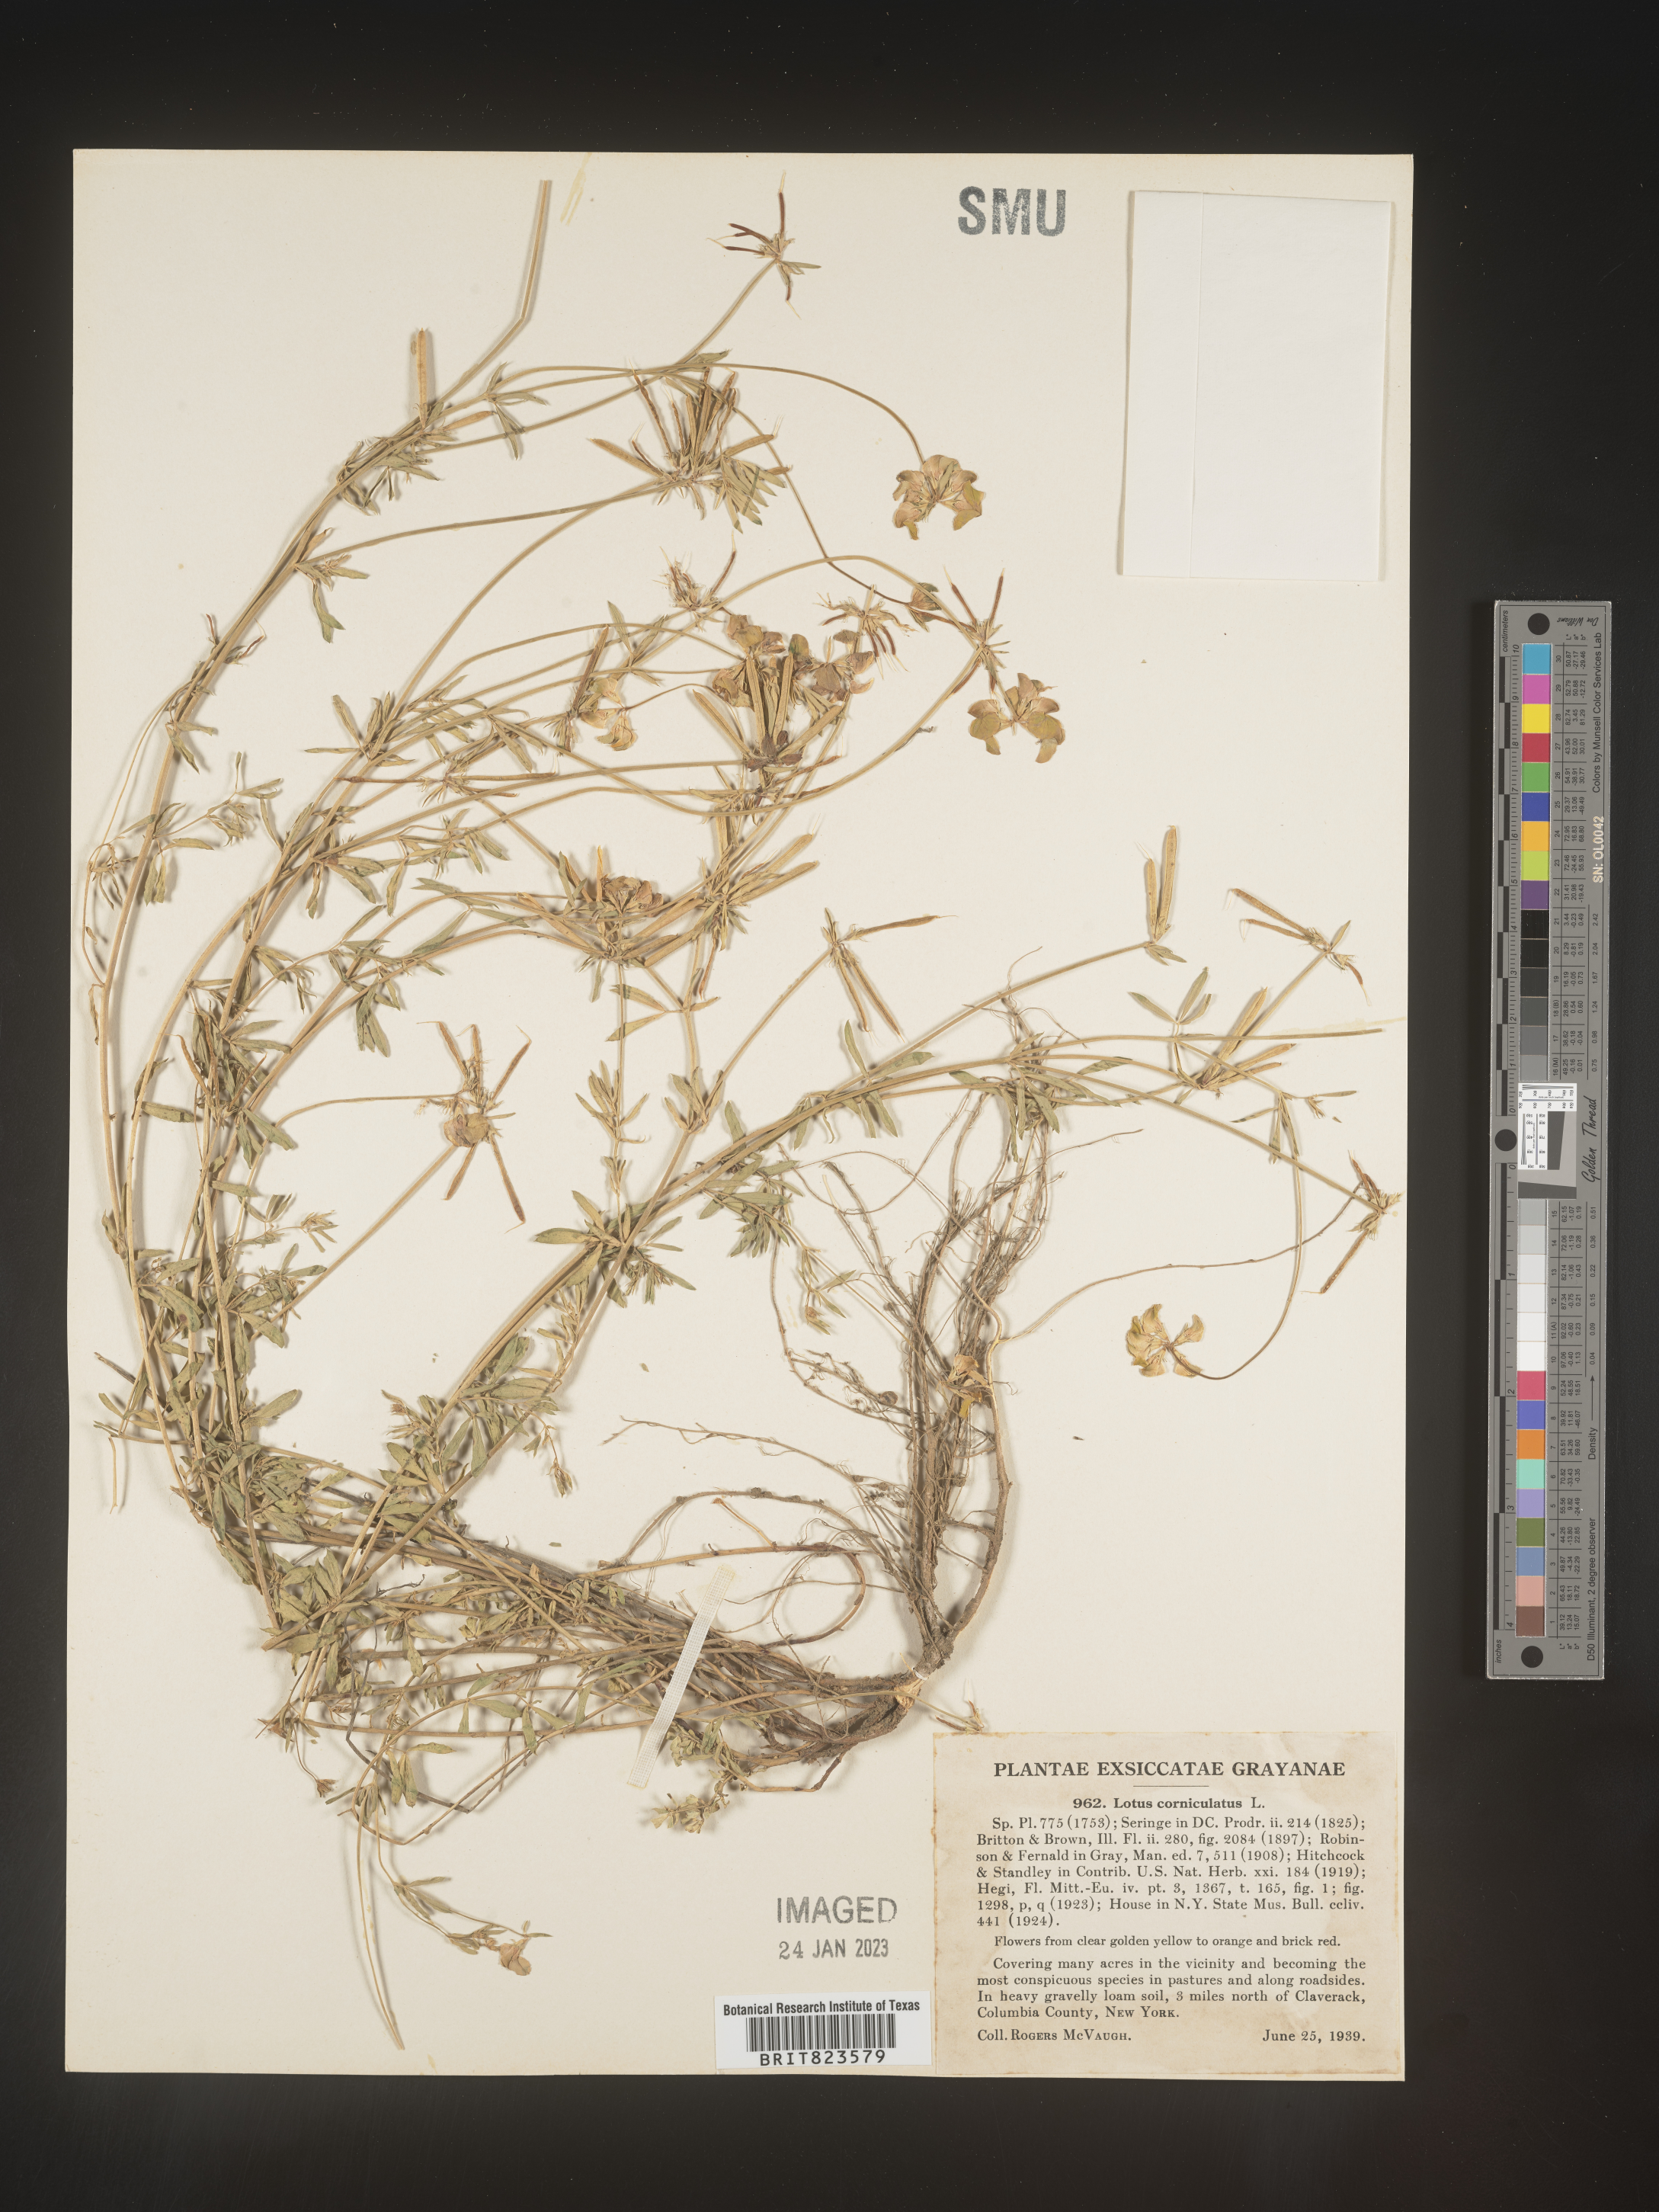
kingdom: Plantae
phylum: Tracheophyta
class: Magnoliopsida
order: Fabales
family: Fabaceae
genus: Lotus
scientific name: Lotus corniculatus
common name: Common bird's-foot-trefoil
